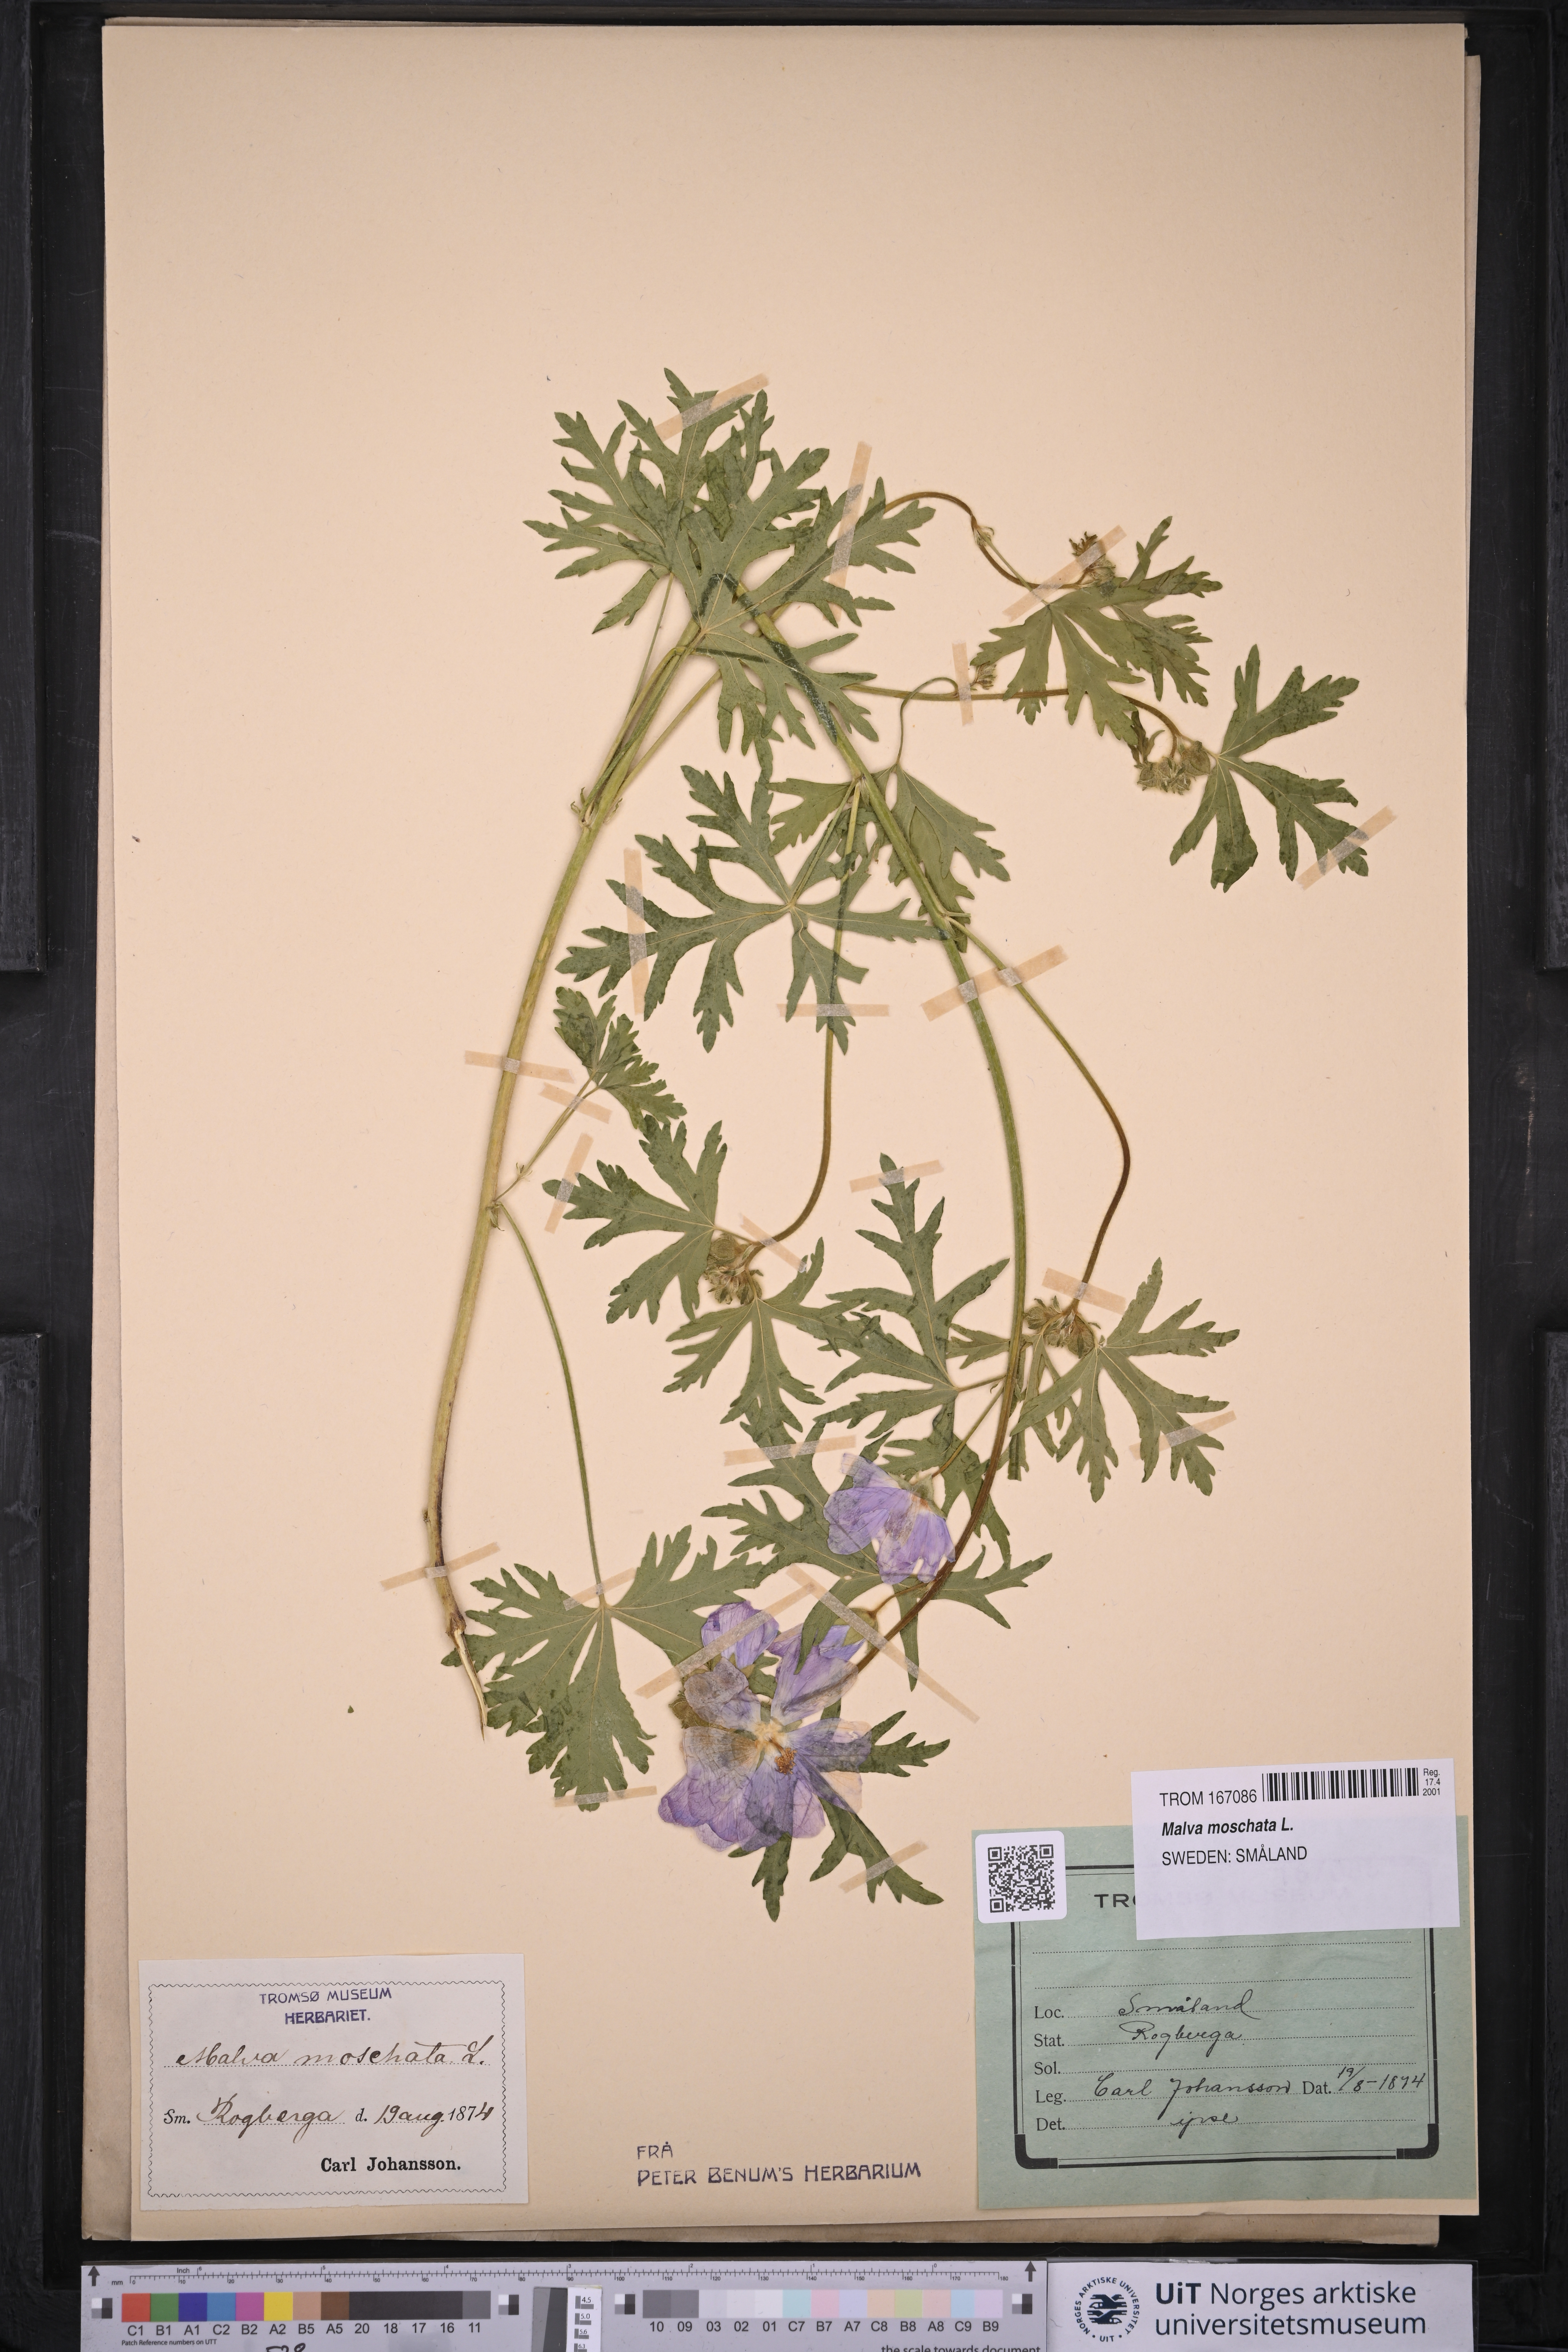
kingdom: Plantae
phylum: Tracheophyta
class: Magnoliopsida
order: Malvales
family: Malvaceae
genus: Malva
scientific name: Malva moschata
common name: Musk mallow
